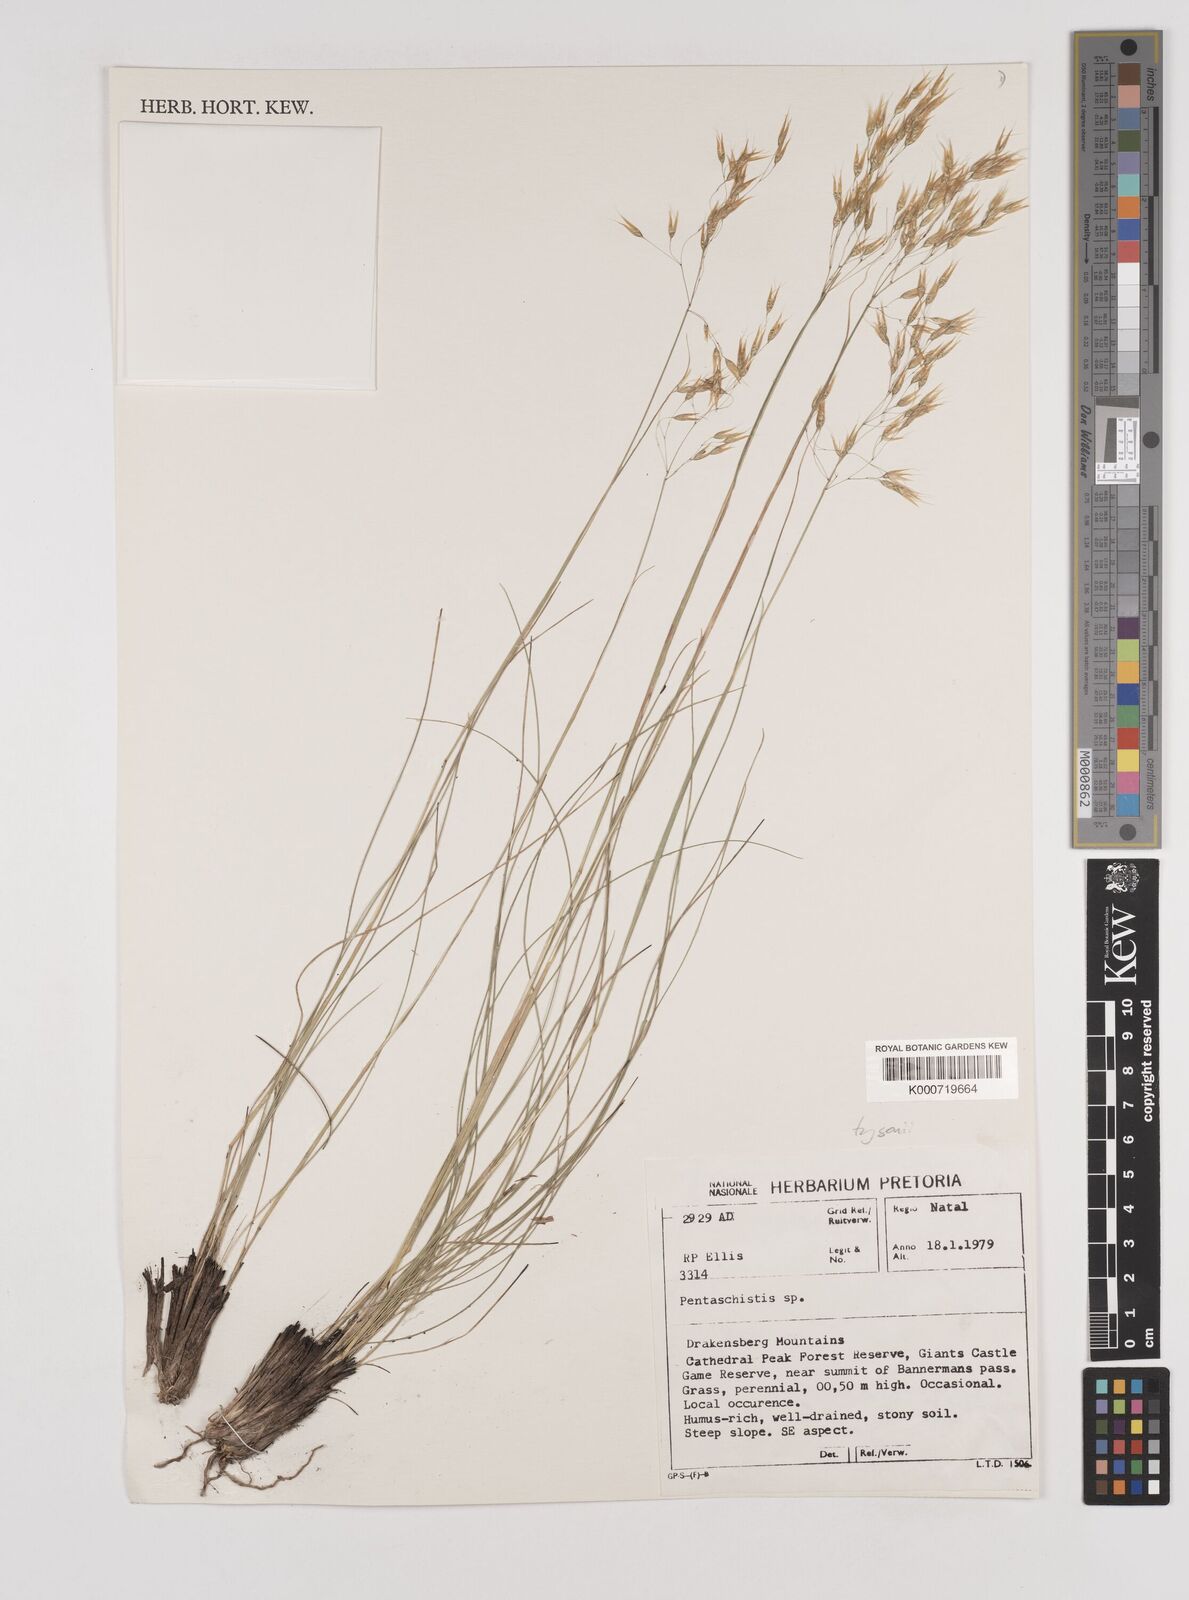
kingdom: Plantae
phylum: Tracheophyta
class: Liliopsida
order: Poales
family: Poaceae
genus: Pentameris
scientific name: Pentameris tysonii
